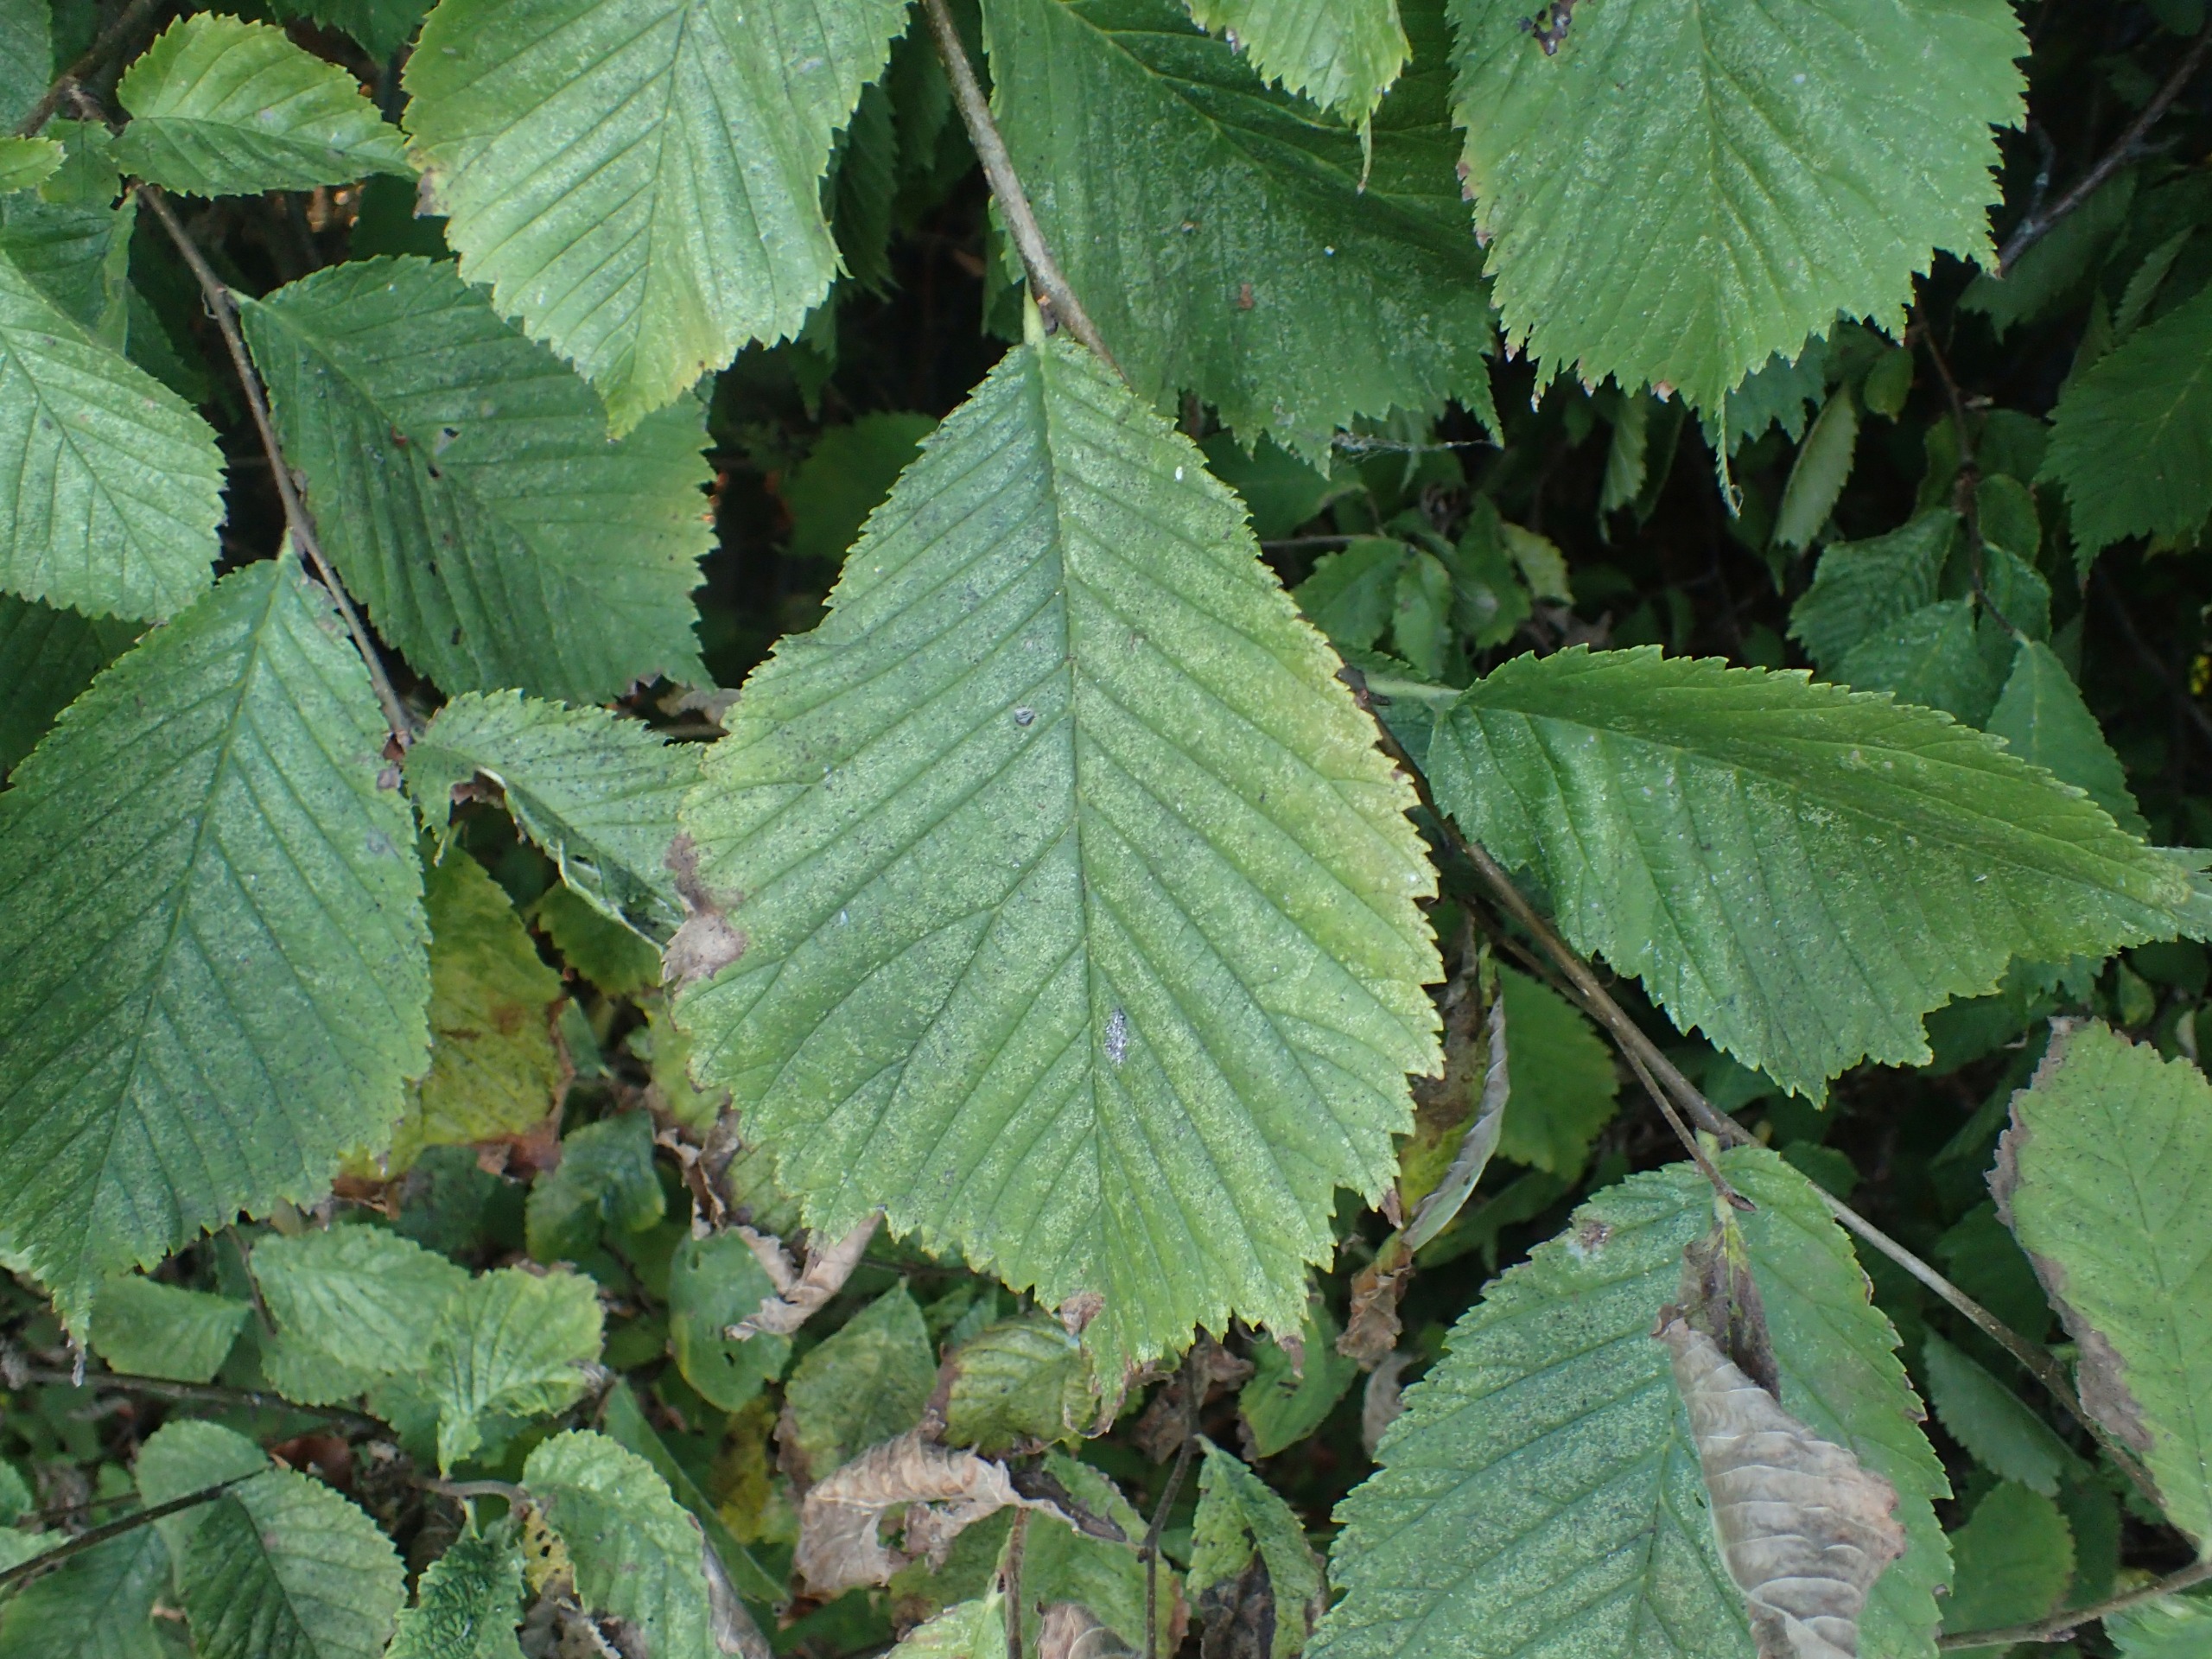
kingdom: Plantae
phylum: Tracheophyta
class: Magnoliopsida
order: Rosales
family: Ulmaceae
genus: Ulmus
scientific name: Ulmus glabra
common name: Skov-elm/storbladet elm
